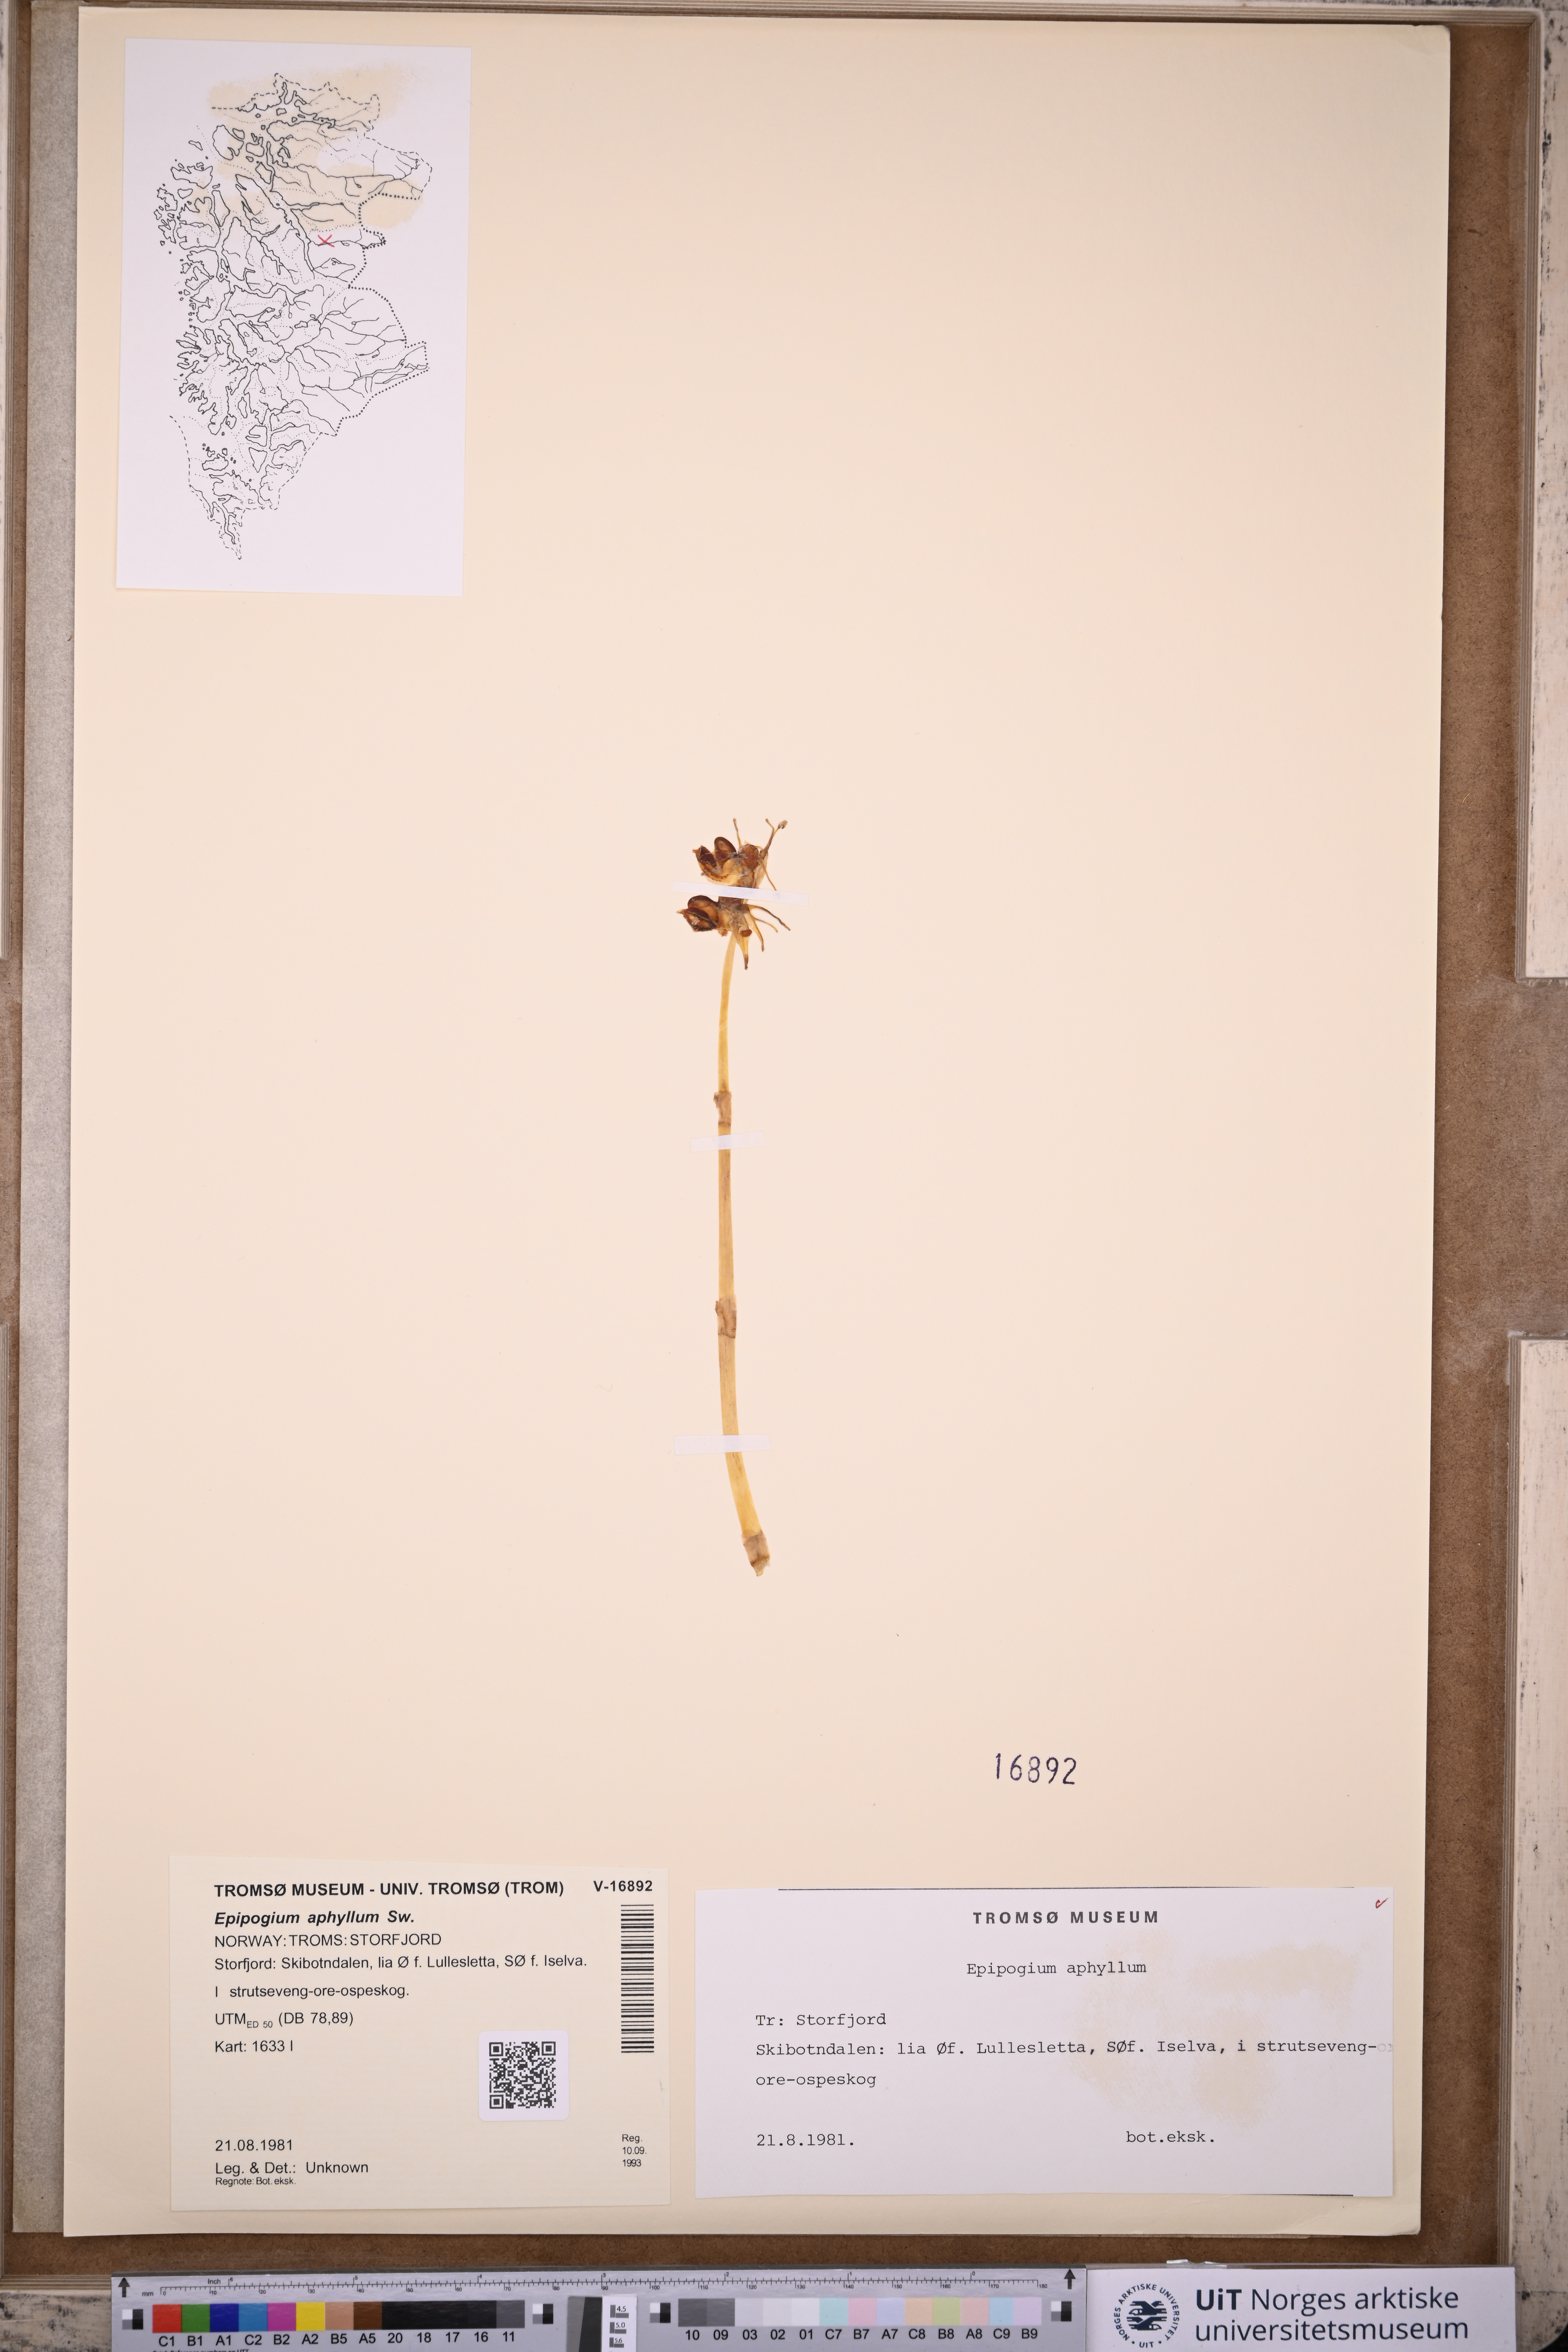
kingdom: Plantae
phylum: Tracheophyta
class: Liliopsida
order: Asparagales
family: Orchidaceae
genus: Epipogium
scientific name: Epipogium aphyllum
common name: Ghost orchid
